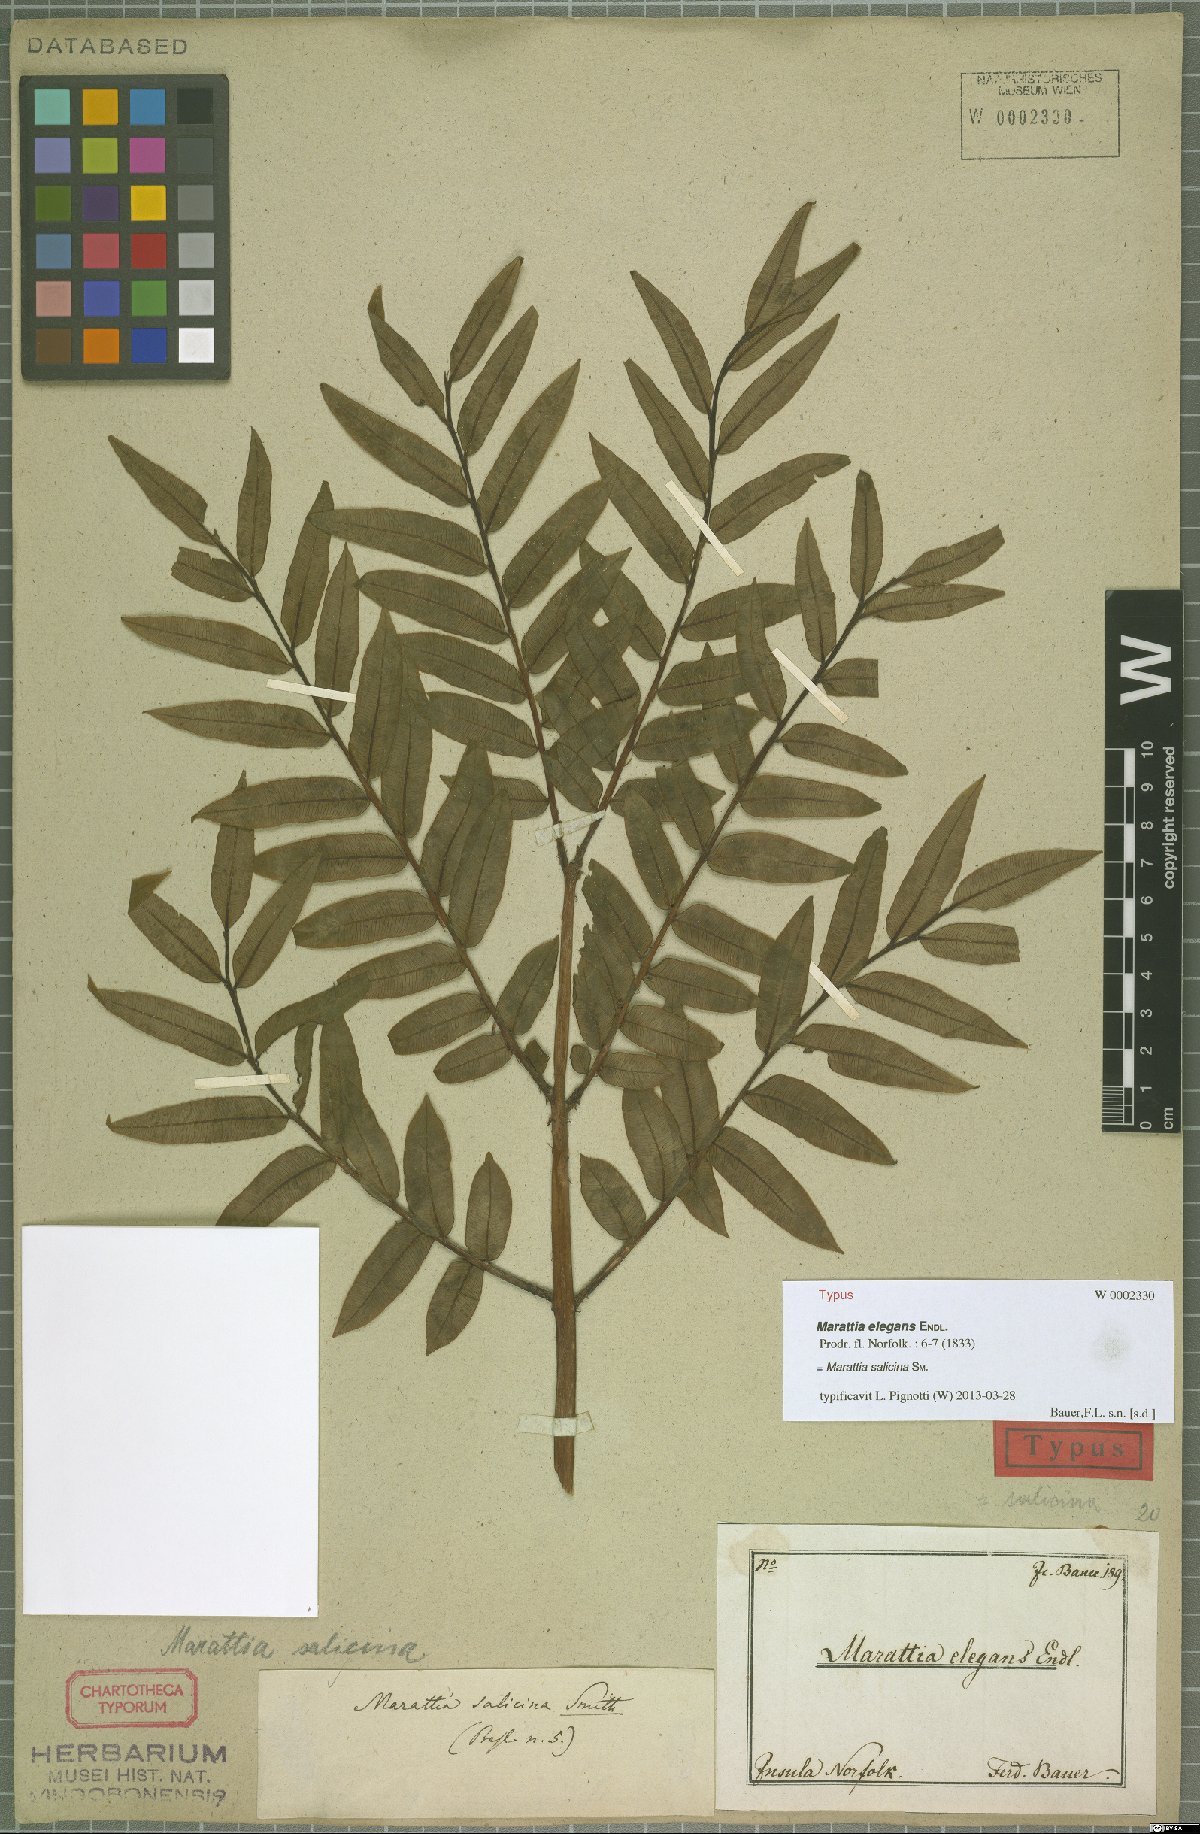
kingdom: Plantae
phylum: Tracheophyta
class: Polypodiopsida
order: Marattiales
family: Marattiaceae
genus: Ptisana
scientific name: Ptisana salicina
